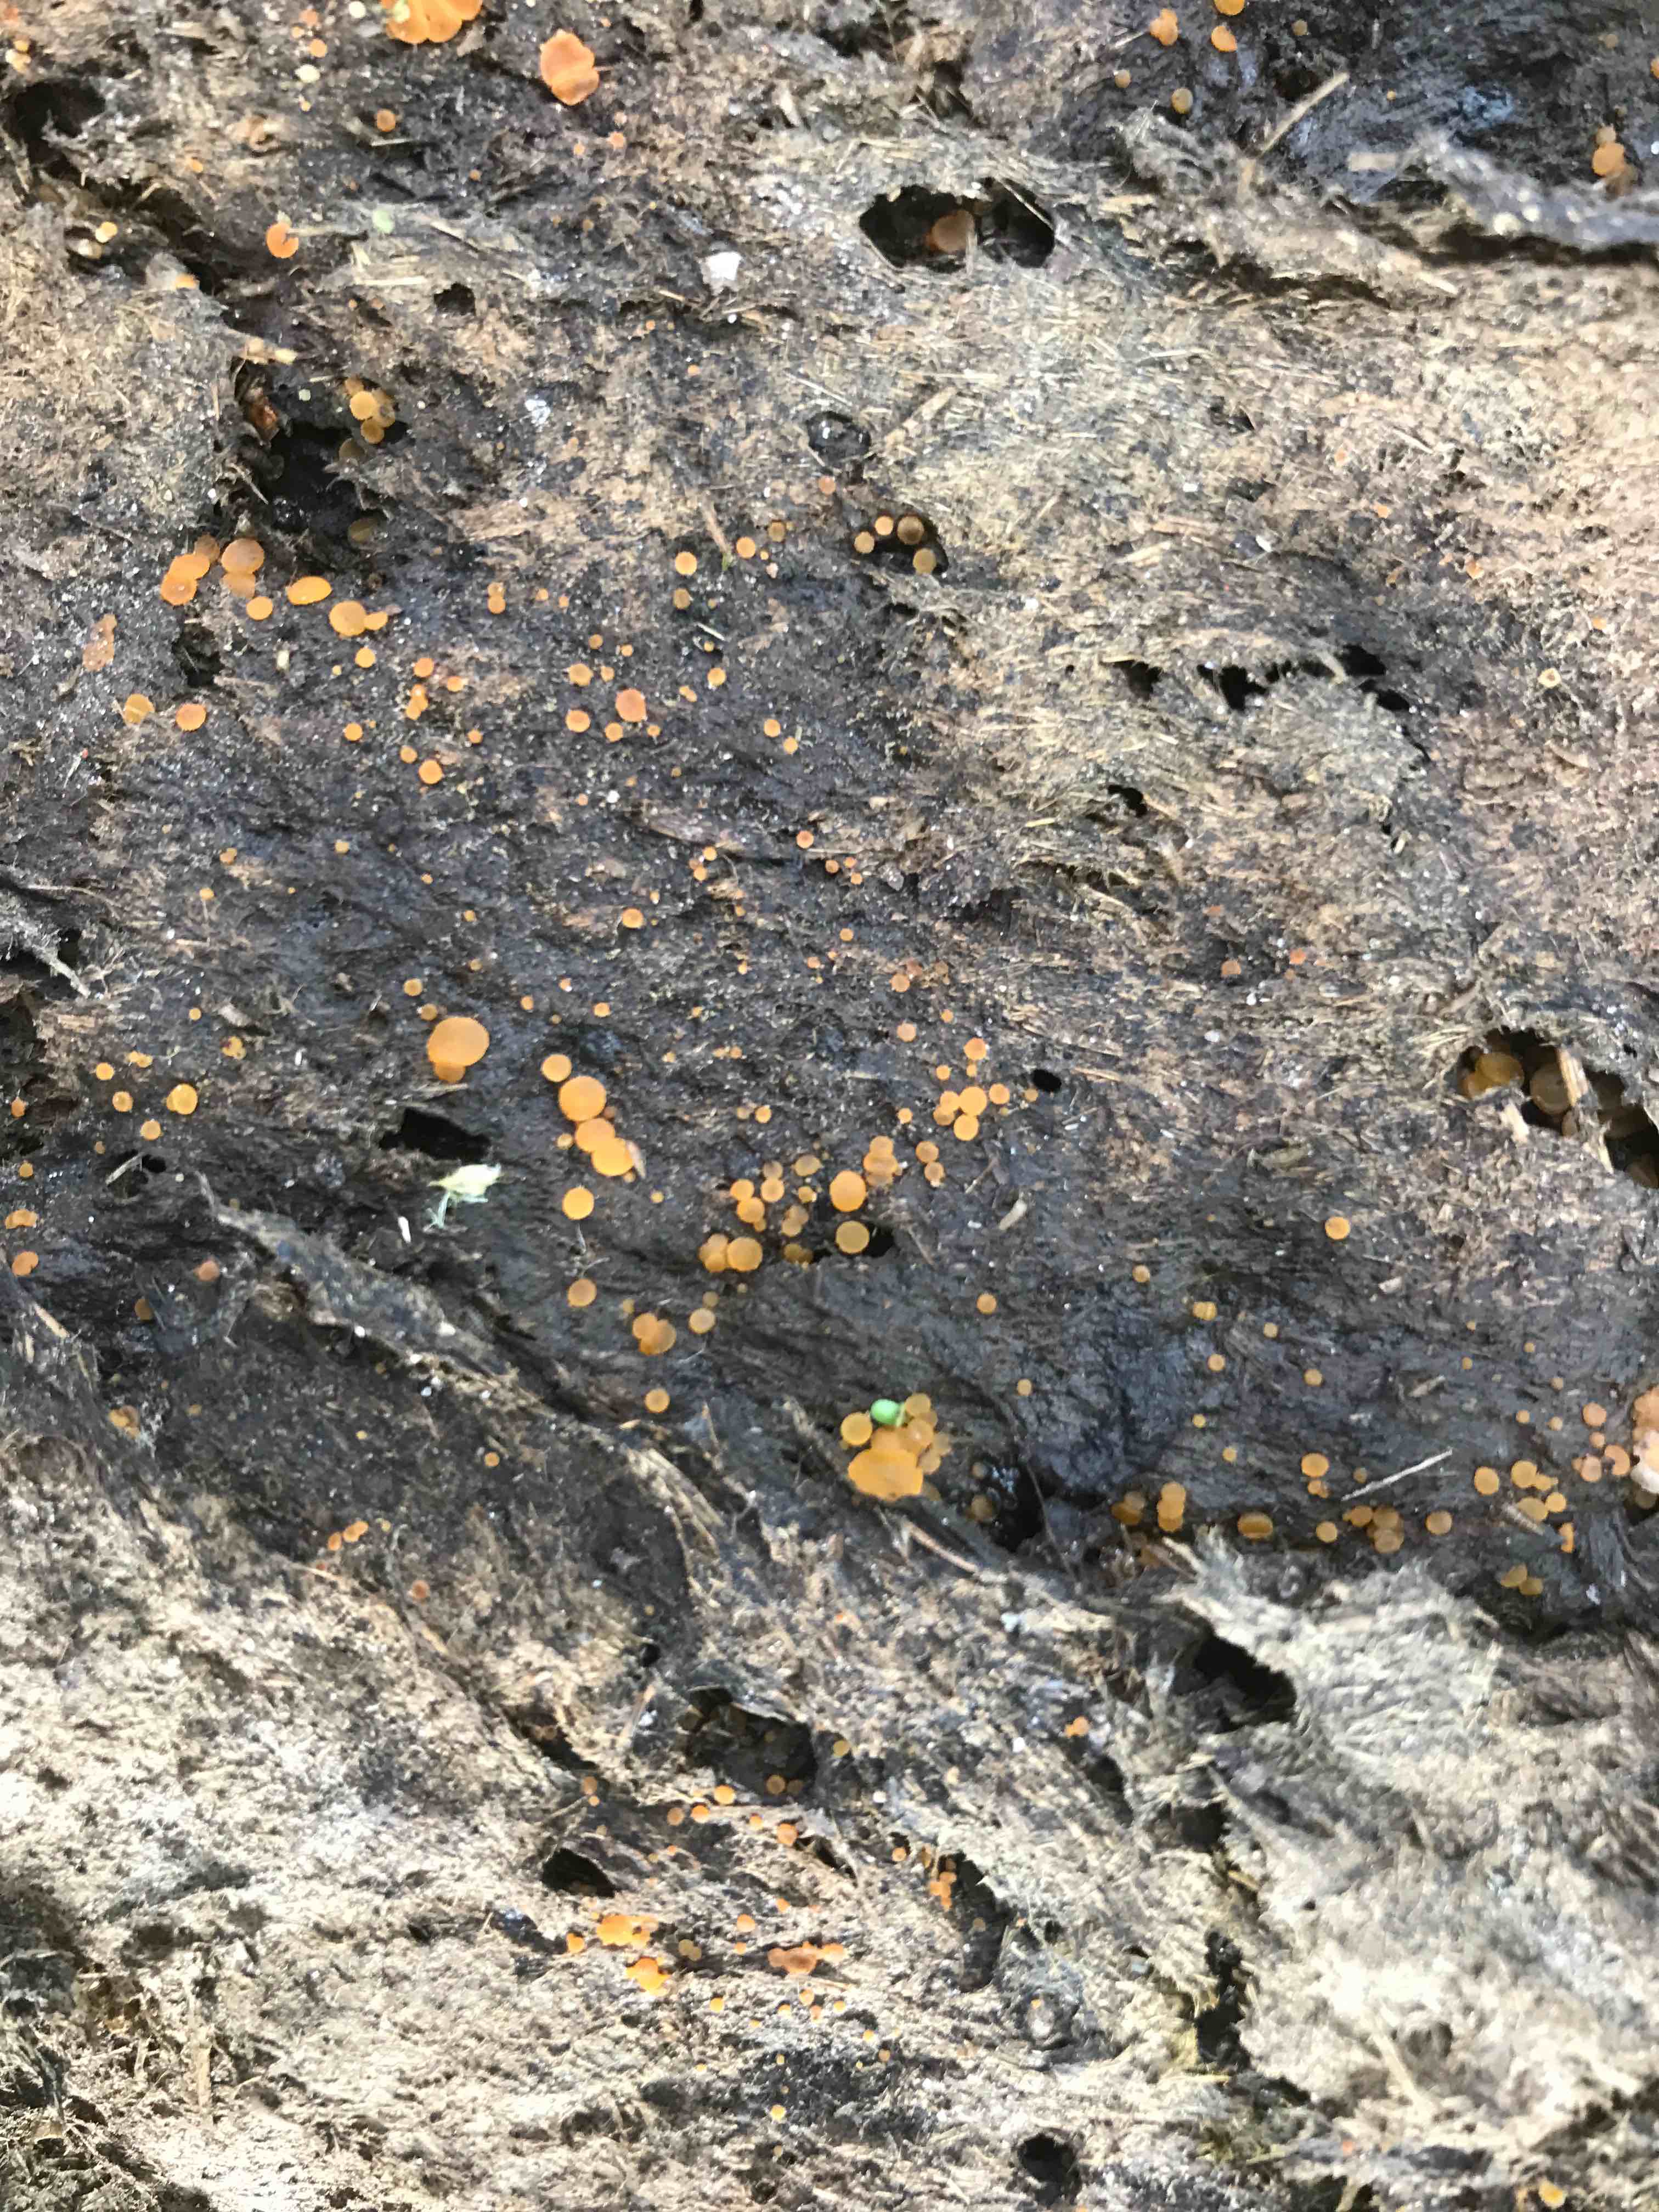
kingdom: Fungi
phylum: Ascomycota
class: Pezizomycetes
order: Pezizales
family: Pyronemataceae
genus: Cheilymenia
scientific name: Cheilymenia granulata
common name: møgbæger
